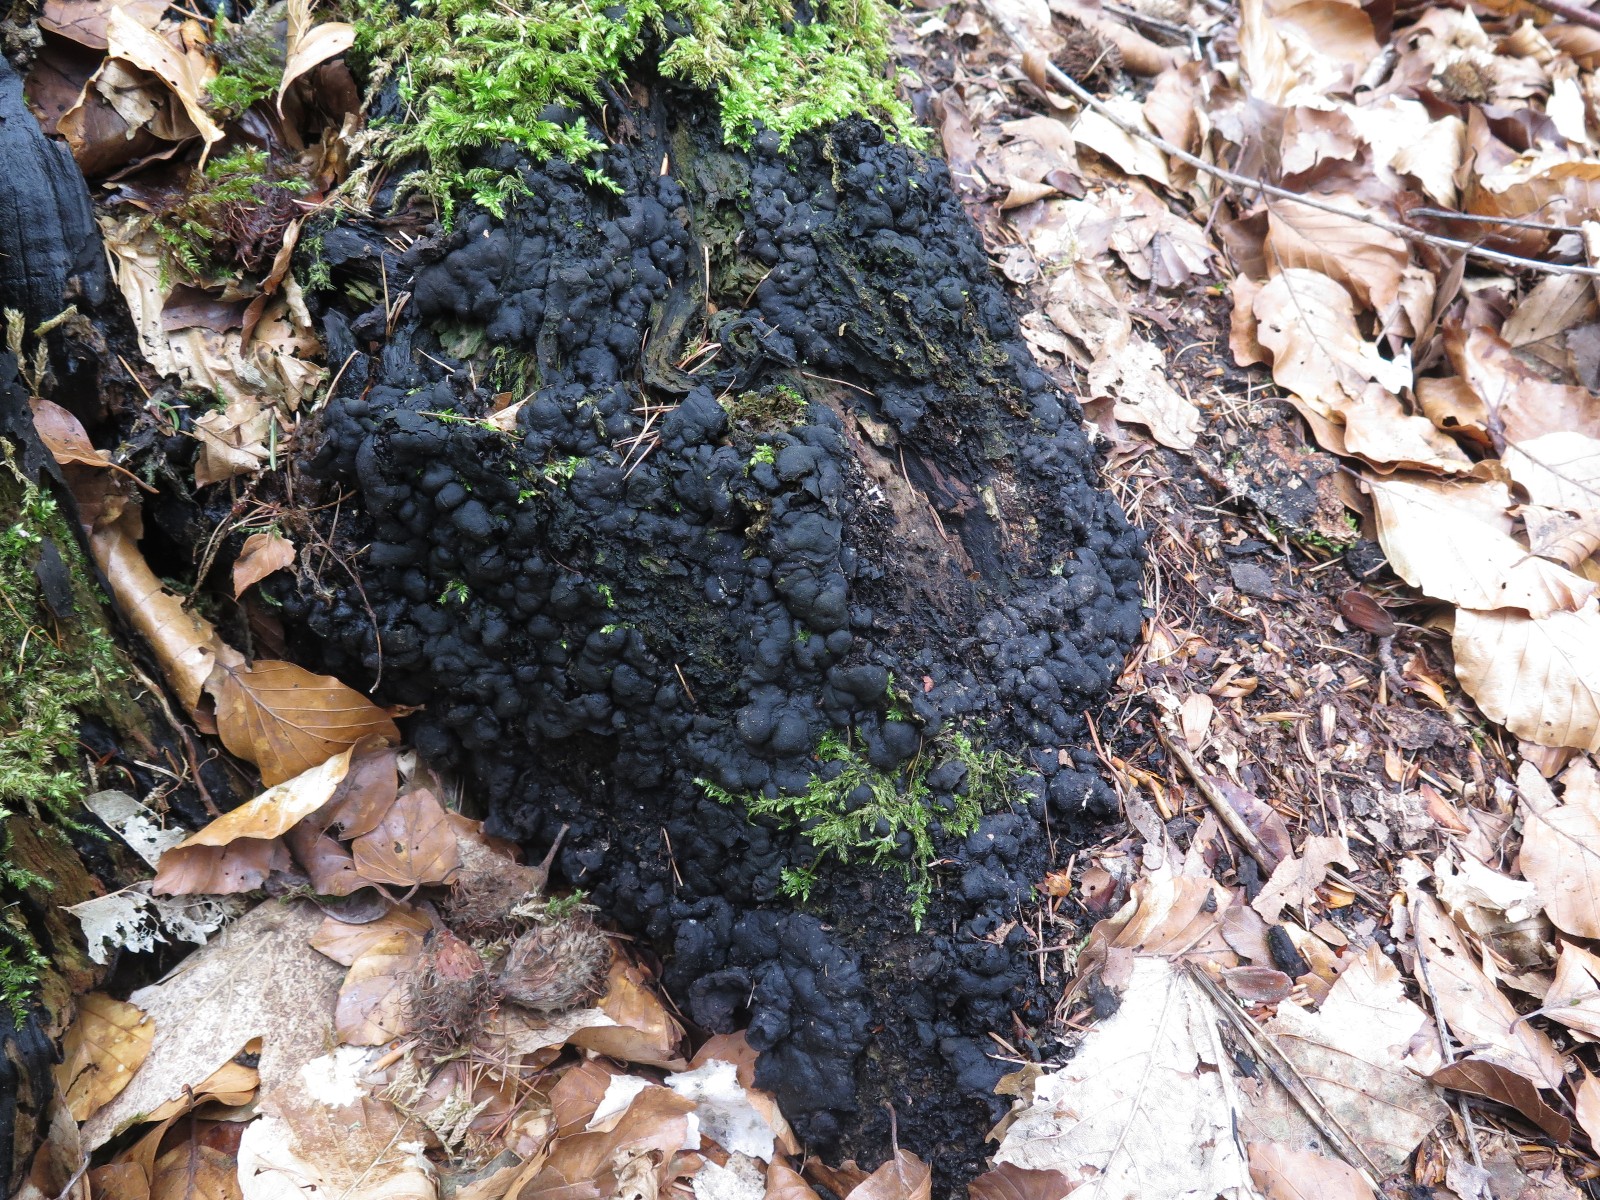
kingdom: Fungi
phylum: Ascomycota
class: Sordariomycetes
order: Xylariales
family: Xylariaceae
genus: Kretzschmaria
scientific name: Kretzschmaria deusta
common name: stor kulsvamp
